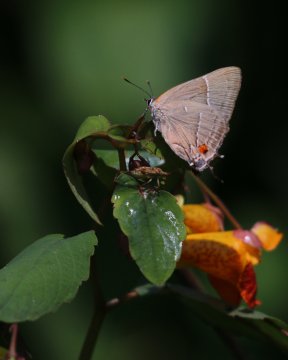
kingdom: Animalia
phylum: Arthropoda
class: Insecta
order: Lepidoptera
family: Lycaenidae
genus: Parrhasius
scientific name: Parrhasius m-album
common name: White-m Hairstreak
